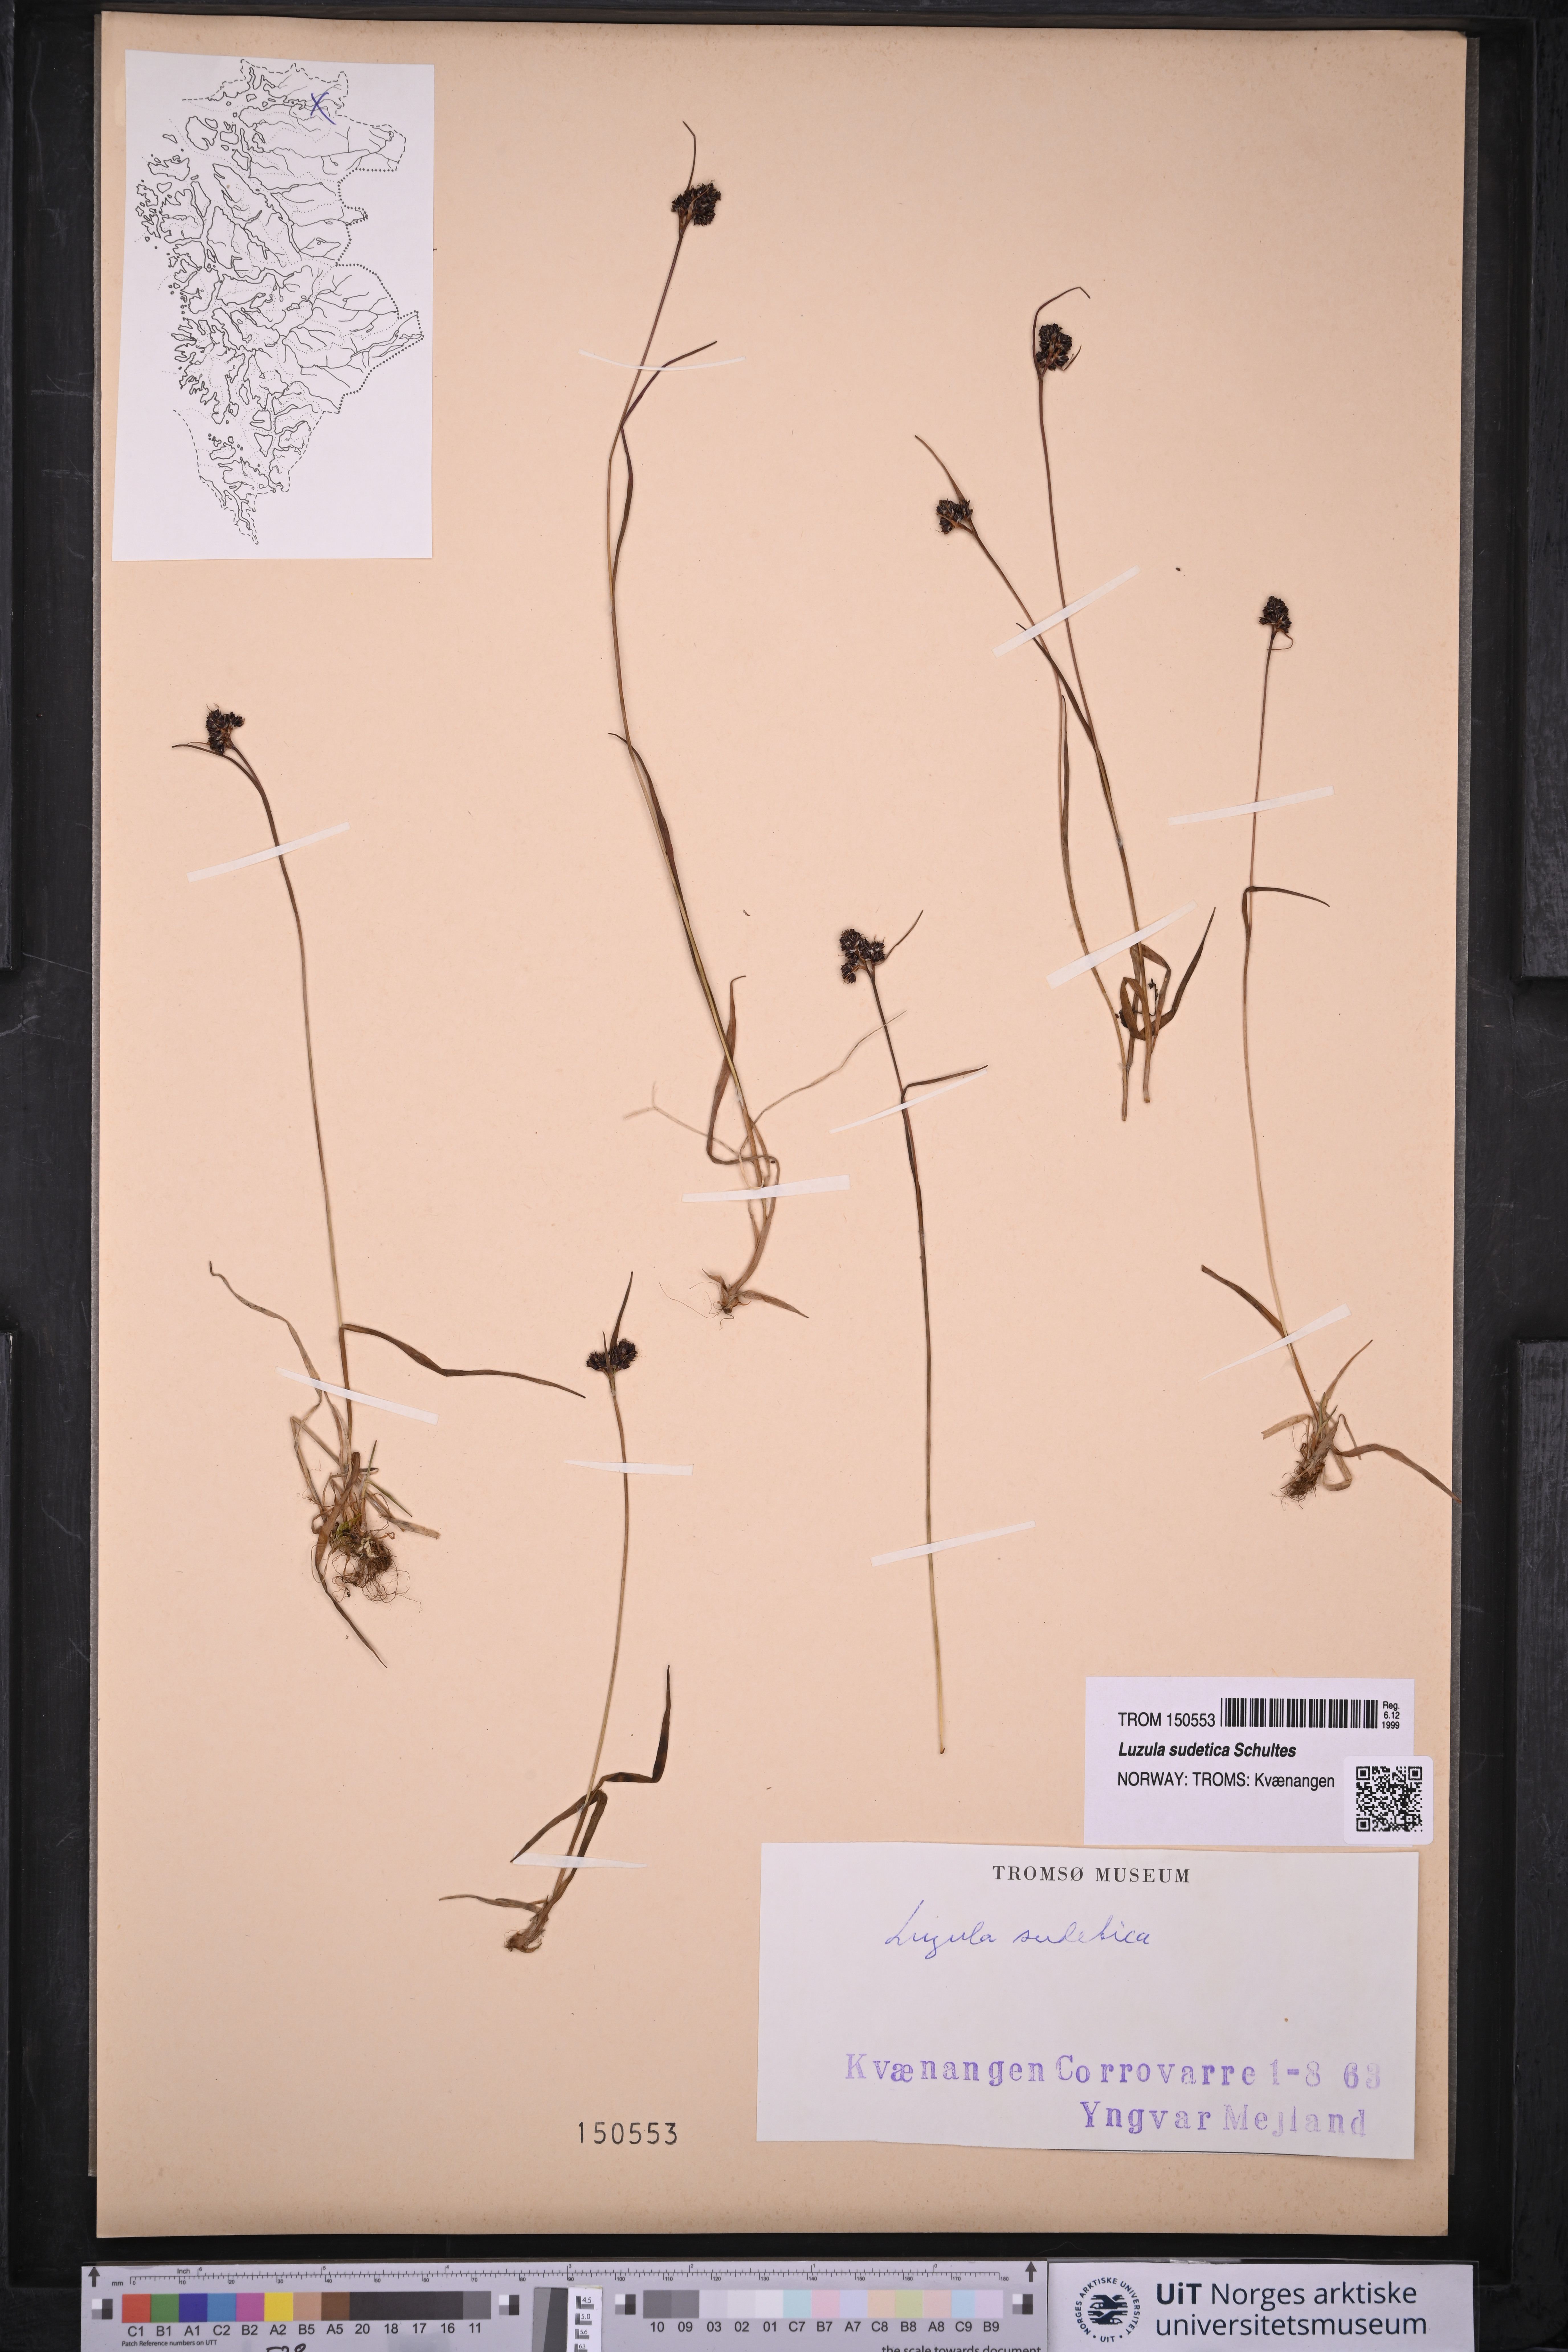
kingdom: Plantae
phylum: Tracheophyta
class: Liliopsida
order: Poales
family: Juncaceae
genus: Luzula
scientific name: Luzula sudetica
